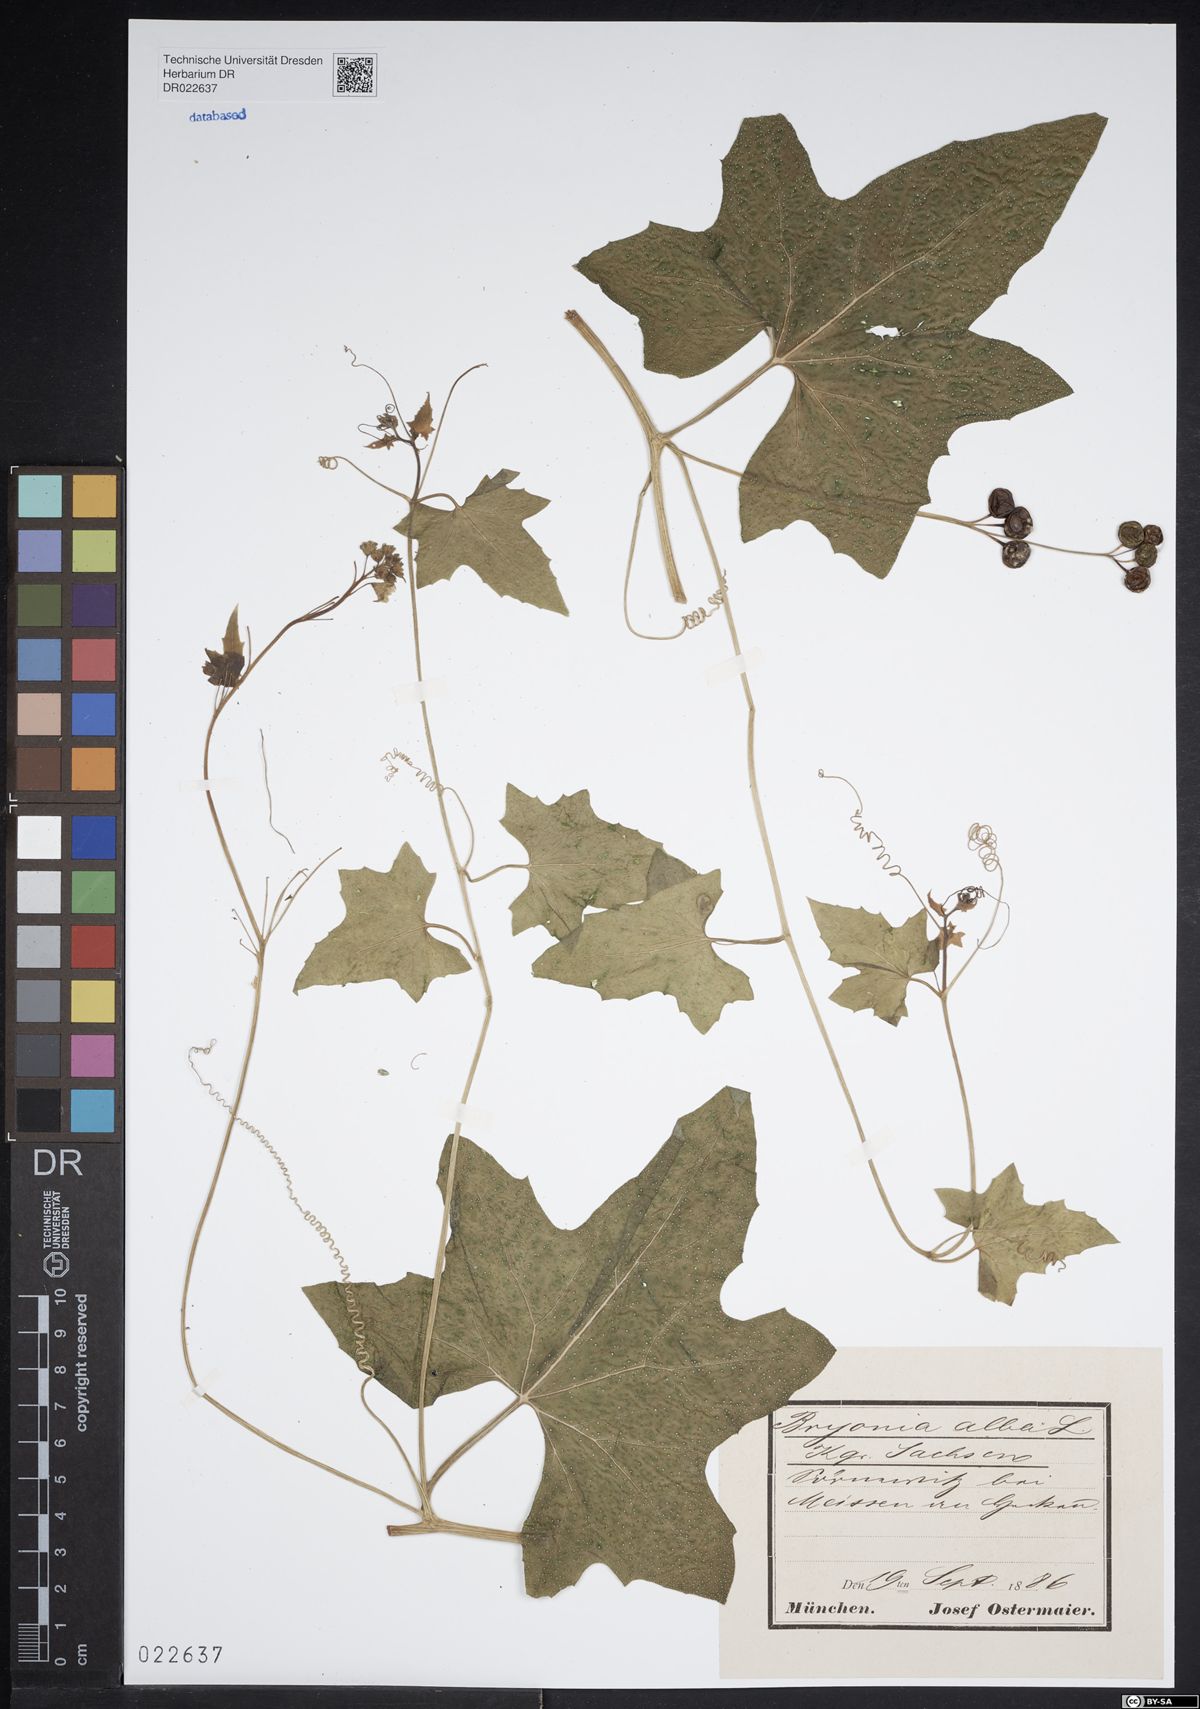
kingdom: Plantae
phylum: Tracheophyta
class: Magnoliopsida
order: Cucurbitales
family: Cucurbitaceae
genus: Bryonia
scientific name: Bryonia alba
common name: White bryony
